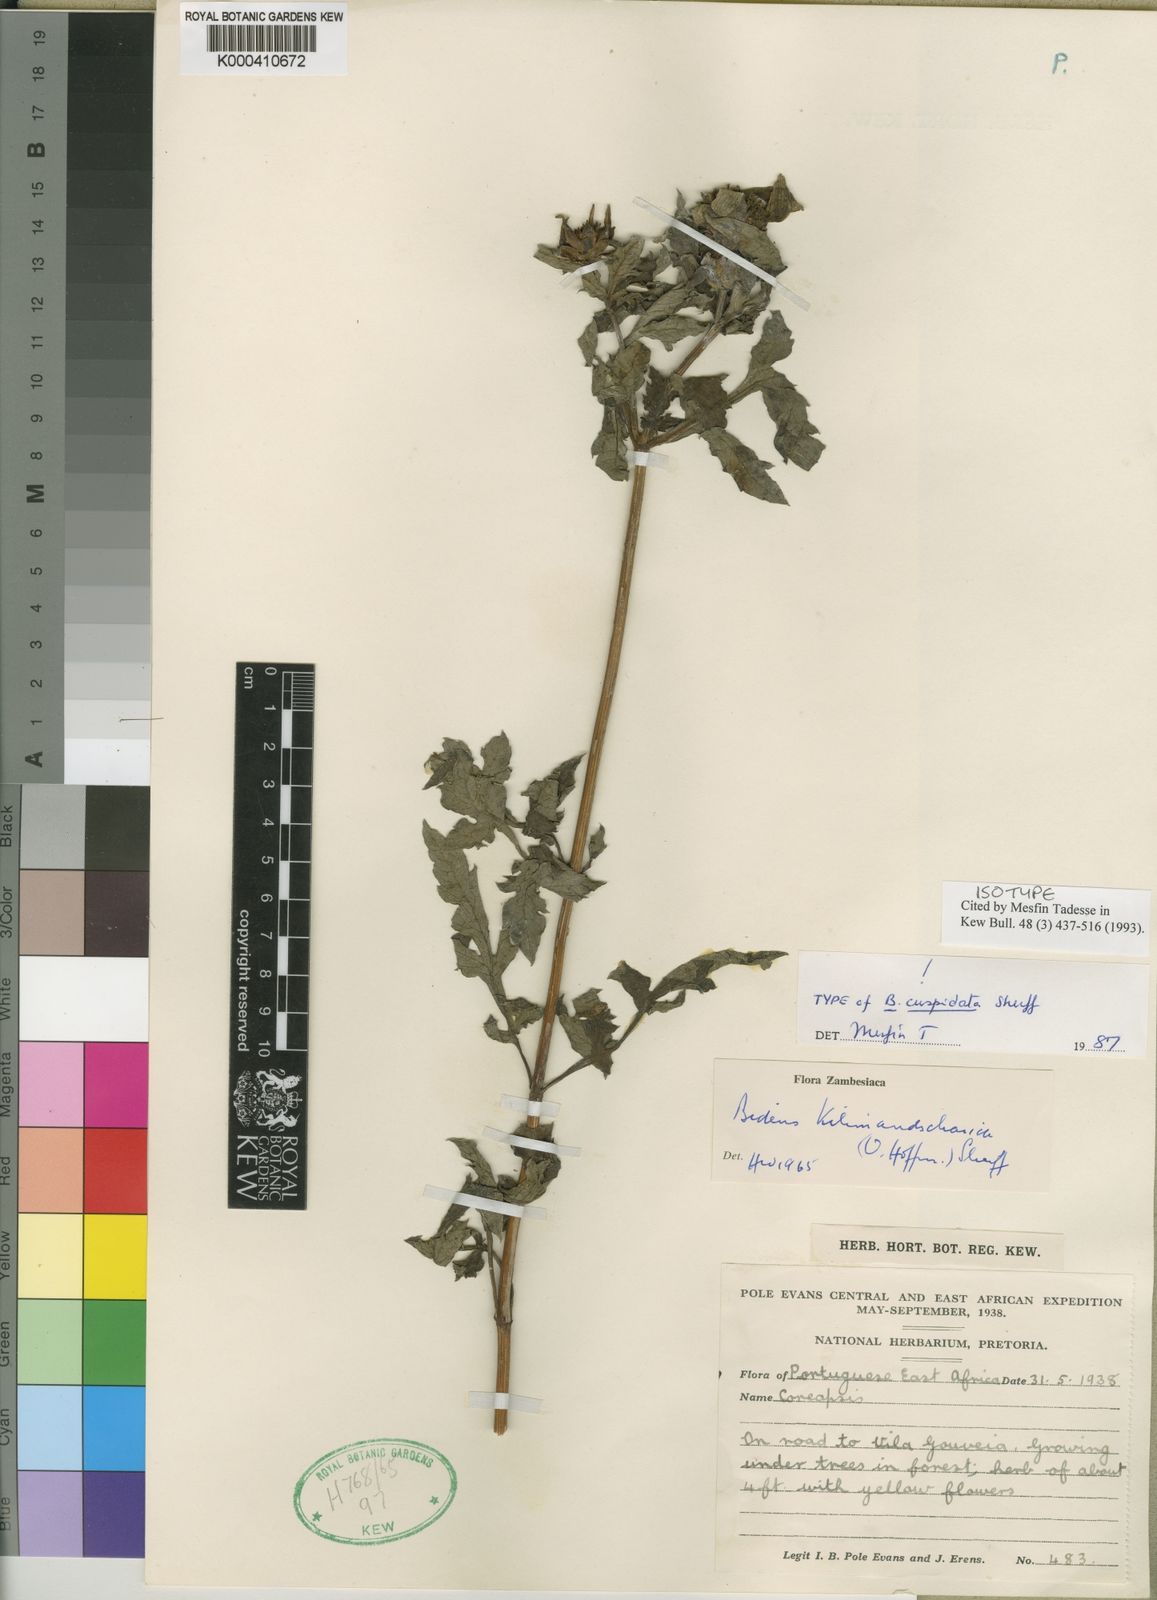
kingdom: Plantae
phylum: Tracheophyta
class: Magnoliopsida
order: Asterales
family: Asteraceae
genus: Bidens
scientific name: Bidens kilimandscharica
